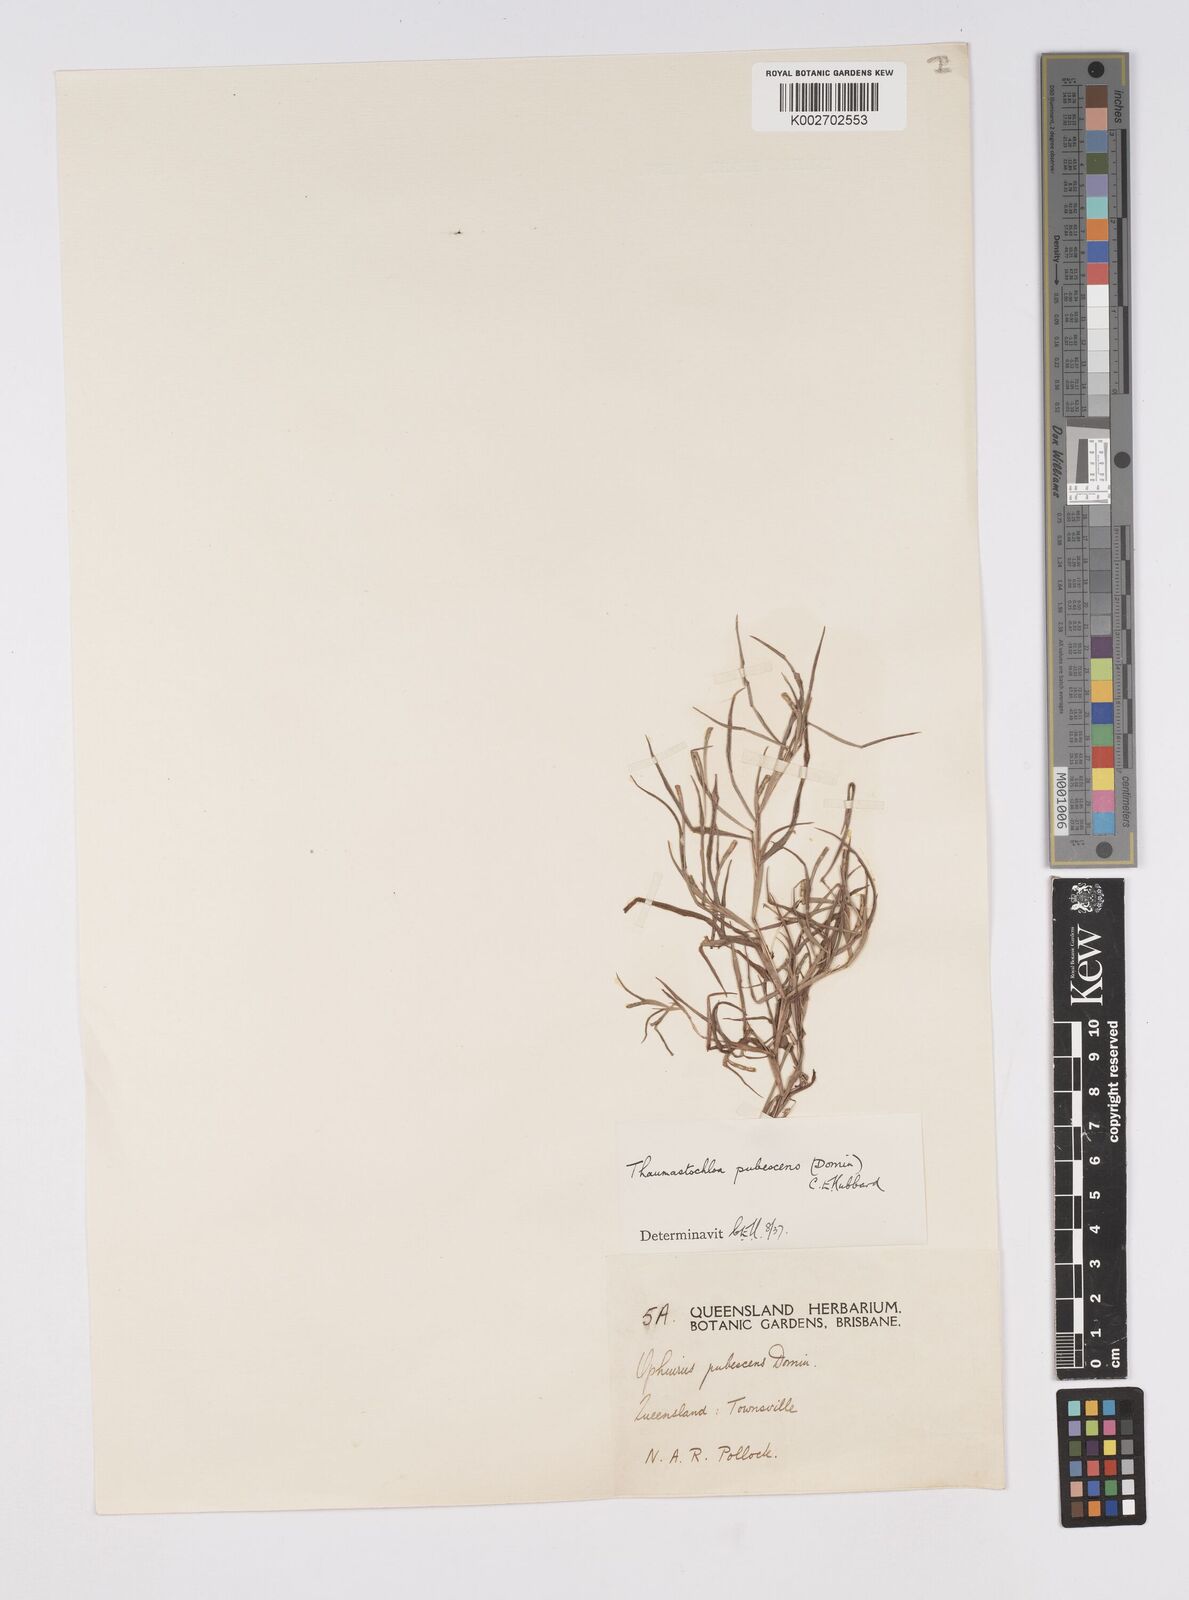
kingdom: Plantae
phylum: Tracheophyta
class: Liliopsida
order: Poales
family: Poaceae
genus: Thaumastochloa
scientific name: Thaumastochloa pubescens
